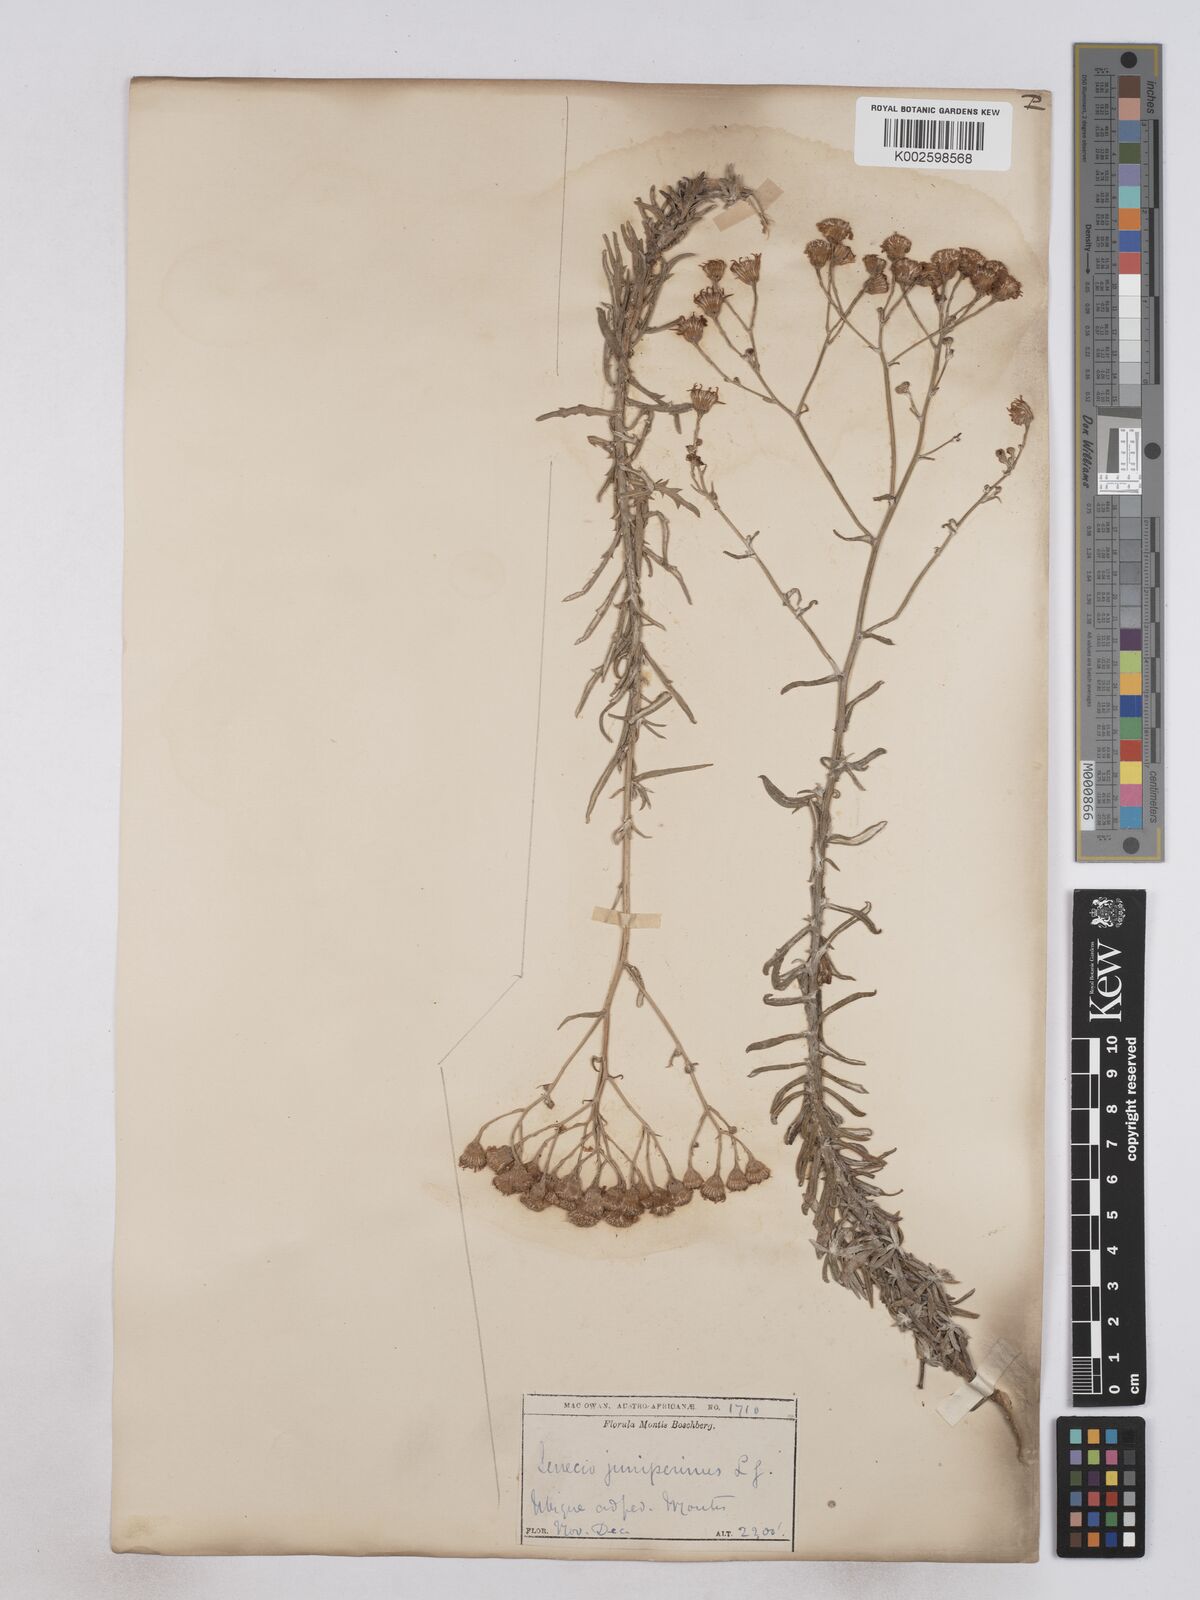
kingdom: Plantae
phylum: Tracheophyta
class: Magnoliopsida
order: Asterales
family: Asteraceae
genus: Senecio
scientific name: Senecio juniperinus
